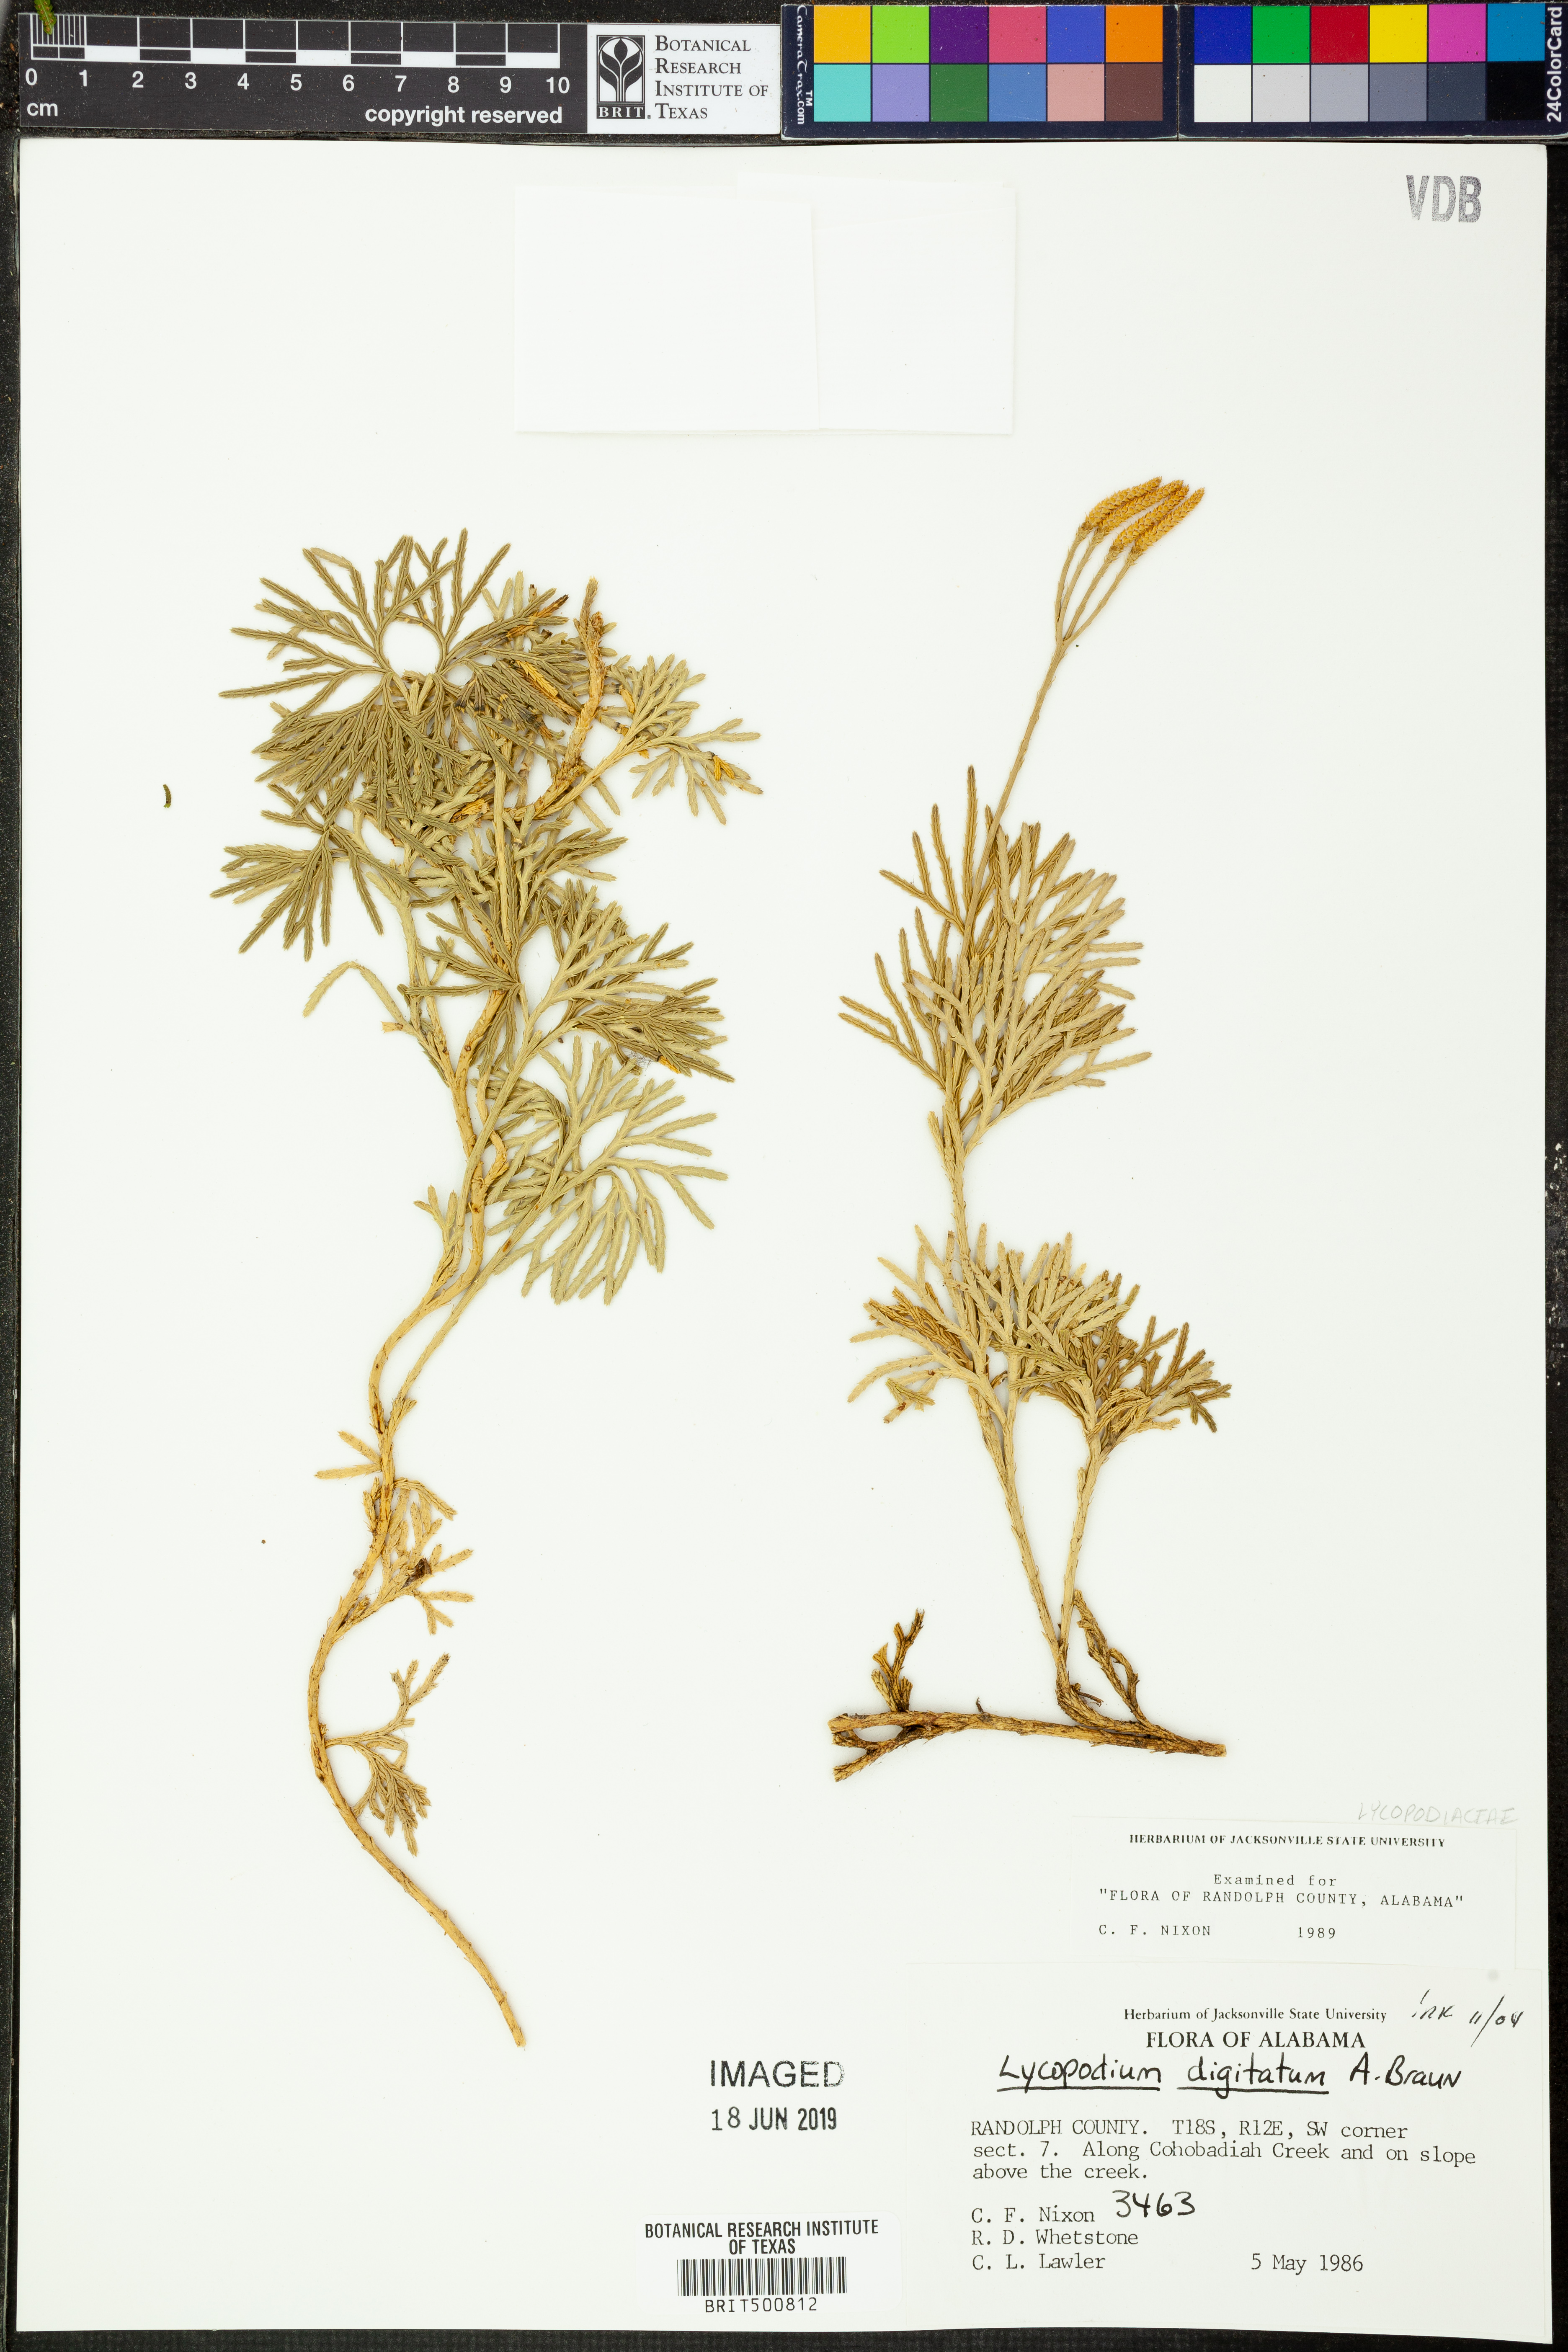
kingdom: Plantae
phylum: Tracheophyta
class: Lycopodiopsida
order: Lycopodiales
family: Lycopodiaceae
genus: Diphasiastrum
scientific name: Diphasiastrum digitatum
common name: Southern running-pine
